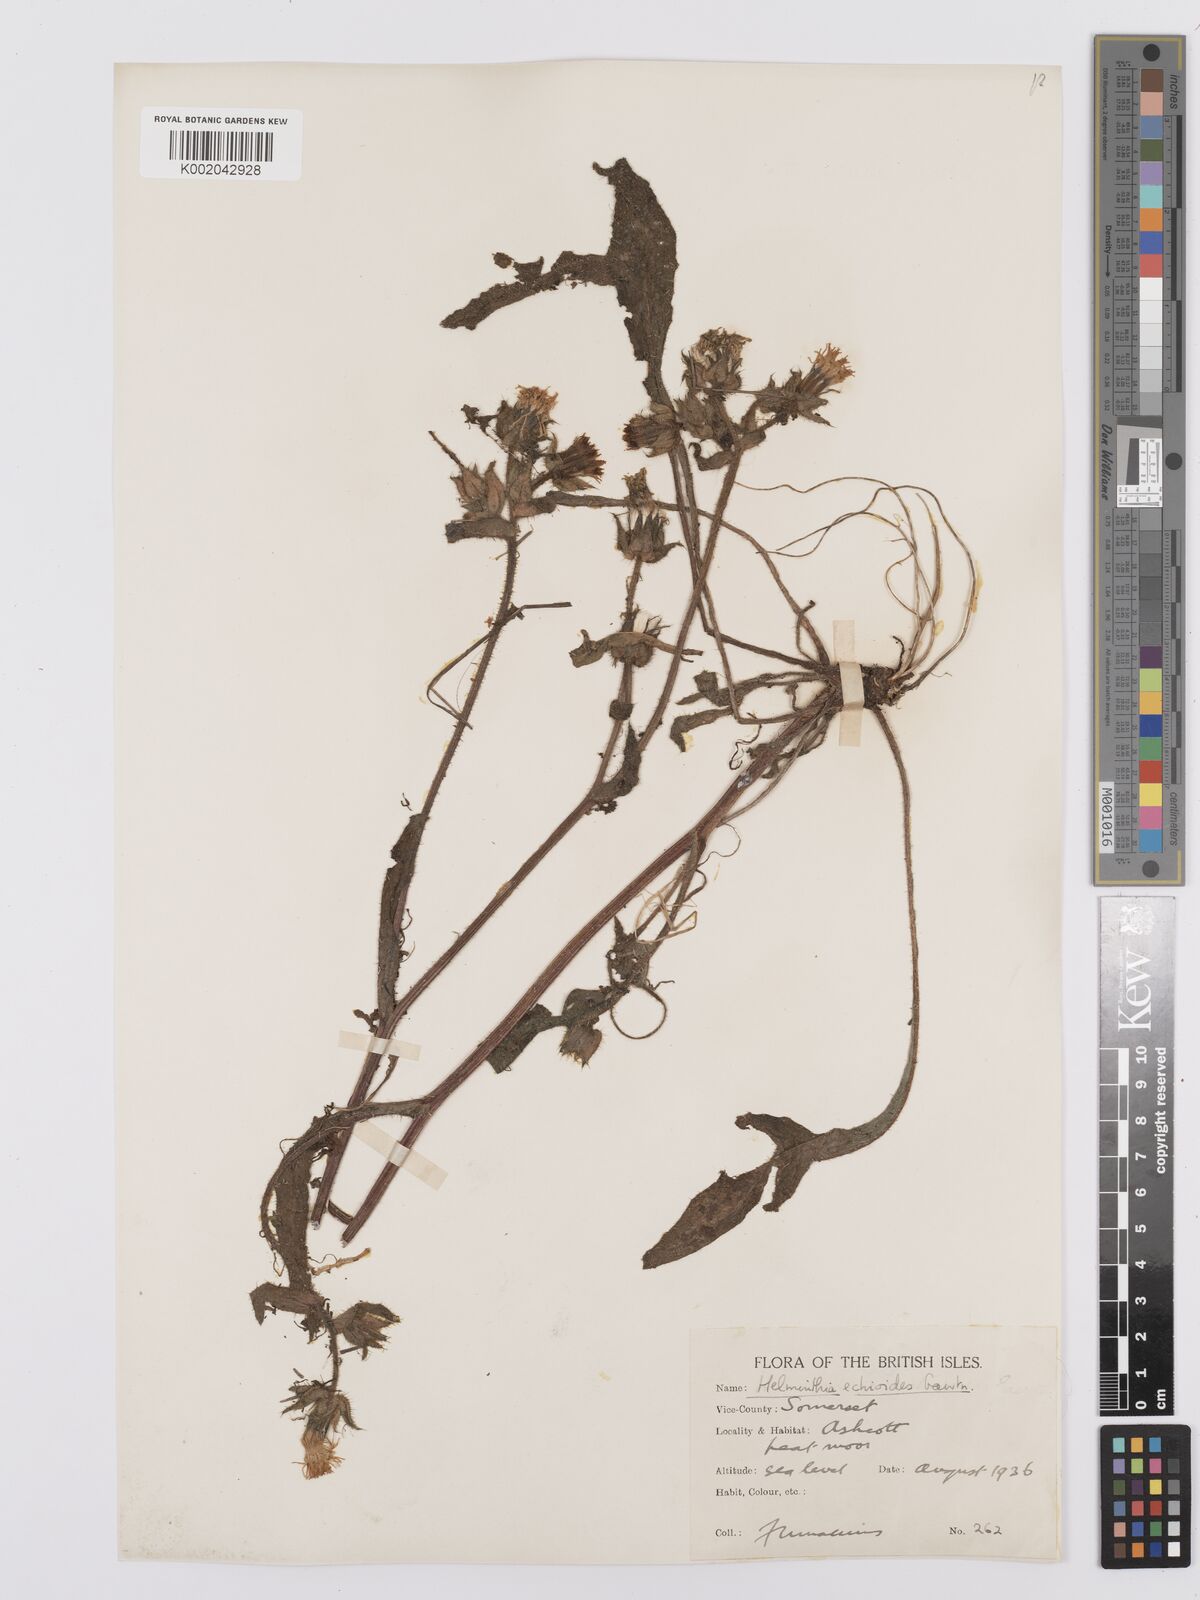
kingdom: Plantae
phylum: Tracheophyta
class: Magnoliopsida
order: Asterales
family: Asteraceae
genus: Helminthotheca
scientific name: Helminthotheca echioides
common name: Ox-tongue
